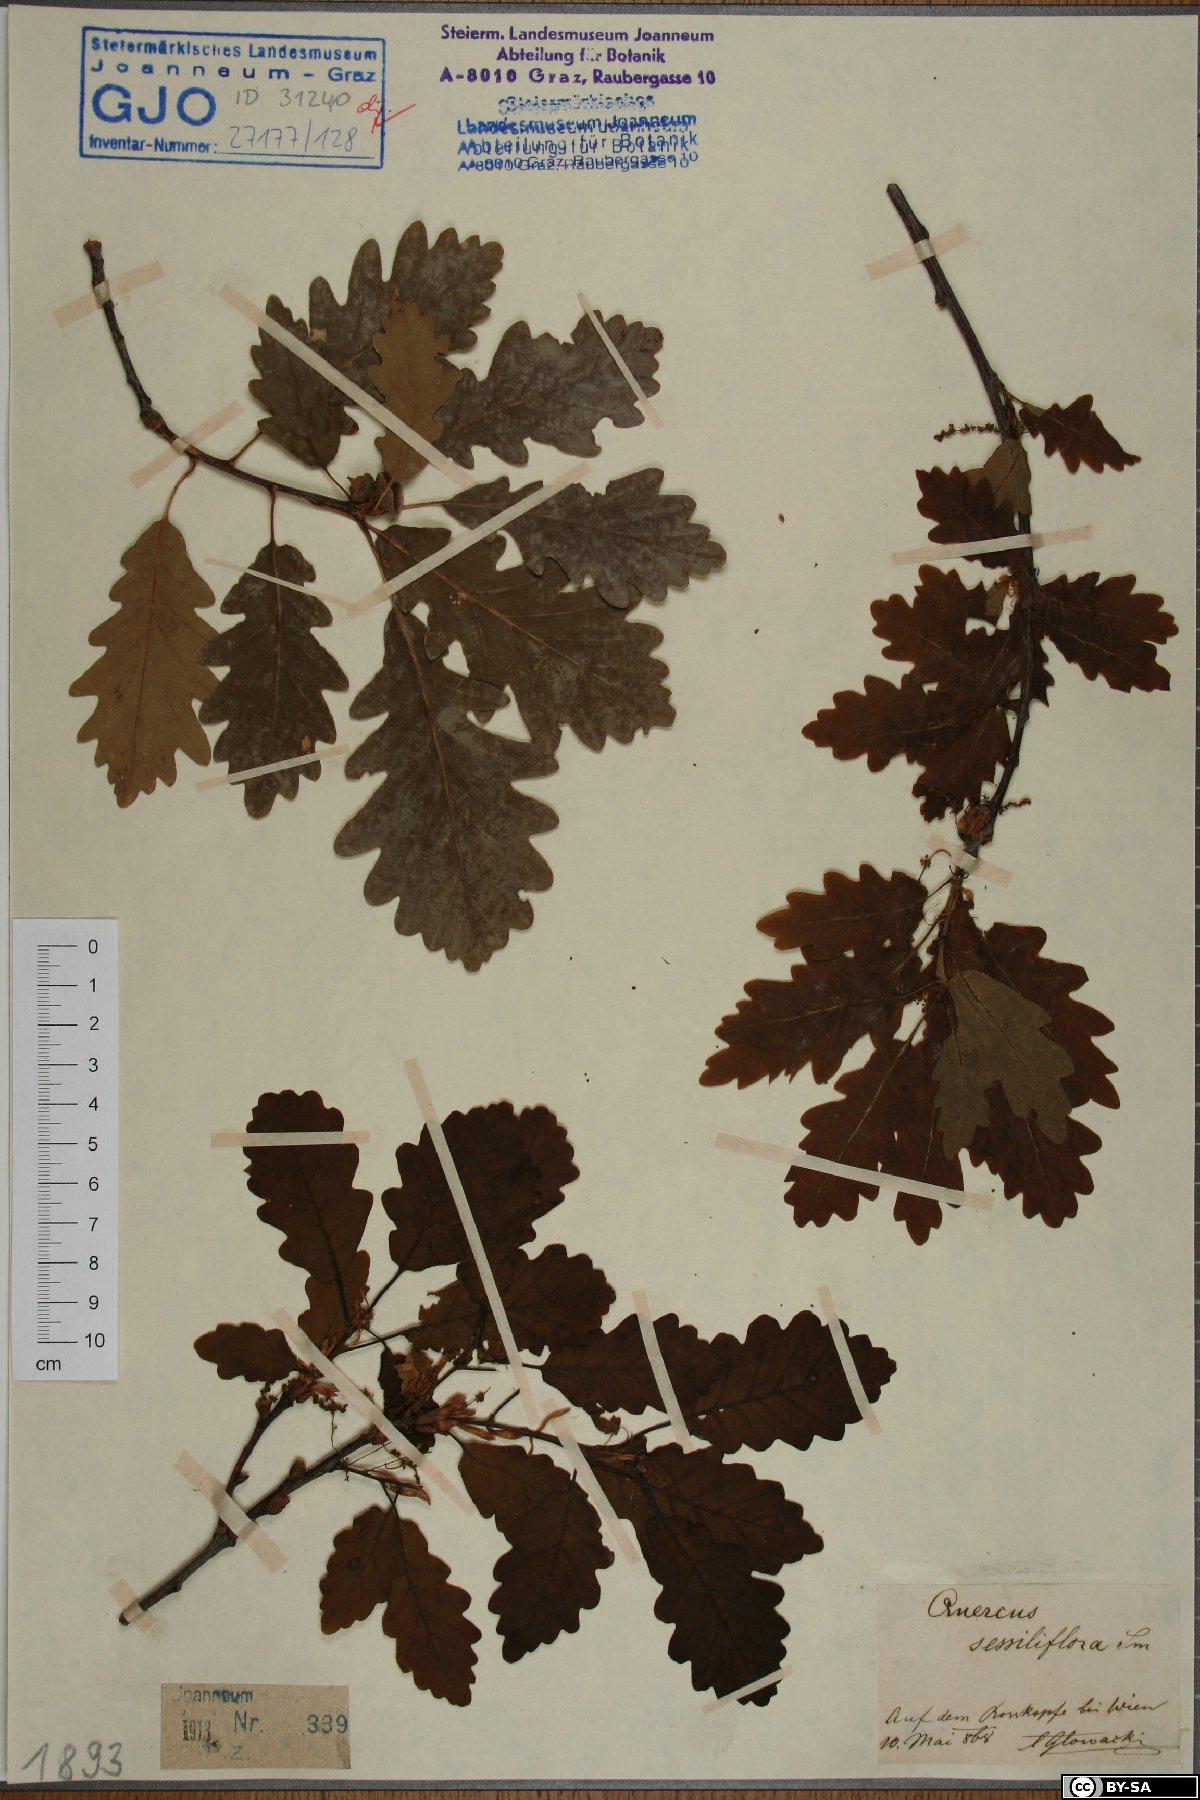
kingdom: Plantae
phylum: Tracheophyta
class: Magnoliopsida
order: Fagales
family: Fagaceae
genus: Quercus
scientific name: Quercus petraea
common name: Sessile oak
